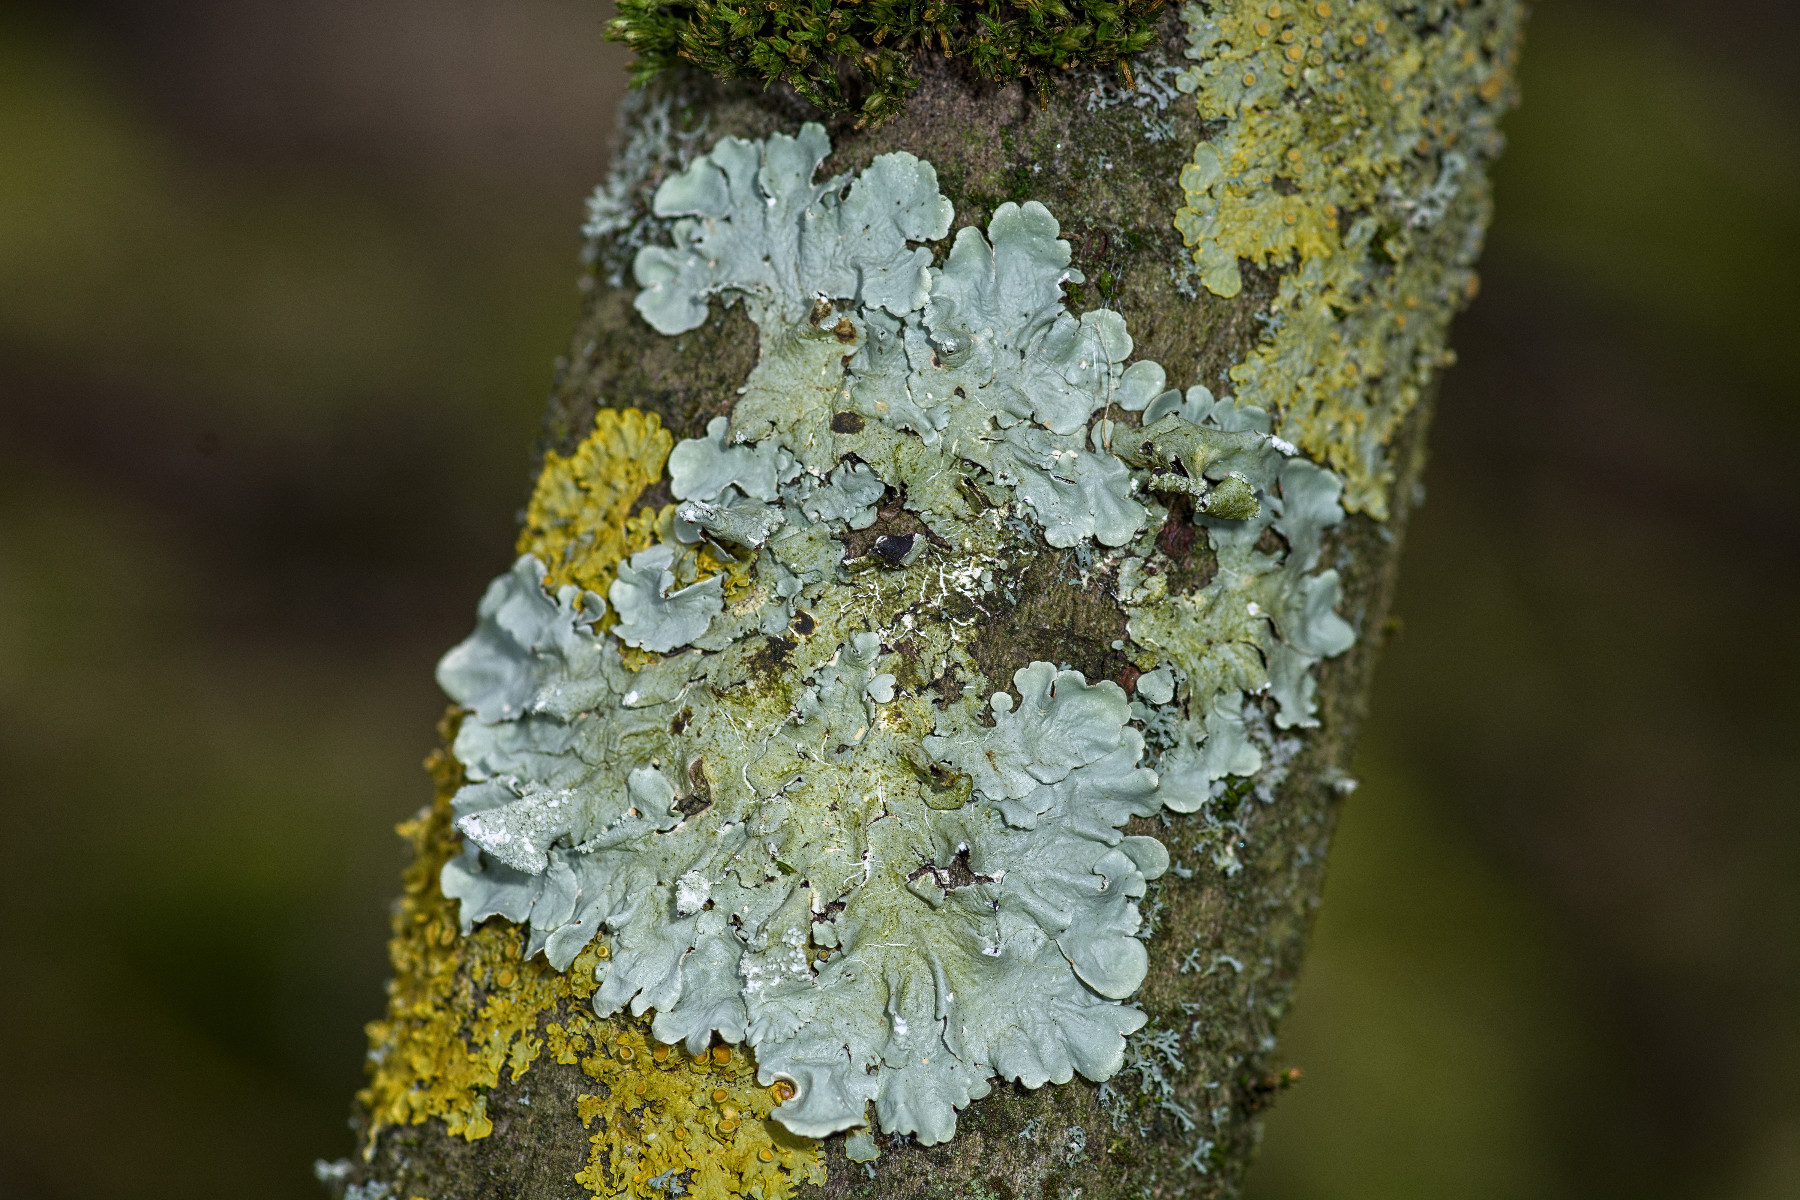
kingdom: Fungi
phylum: Ascomycota
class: Lecanoromycetes
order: Lecanorales
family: Parmeliaceae
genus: Flavoparmelia
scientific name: Flavoparmelia caperata
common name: gulgrøn skållav
